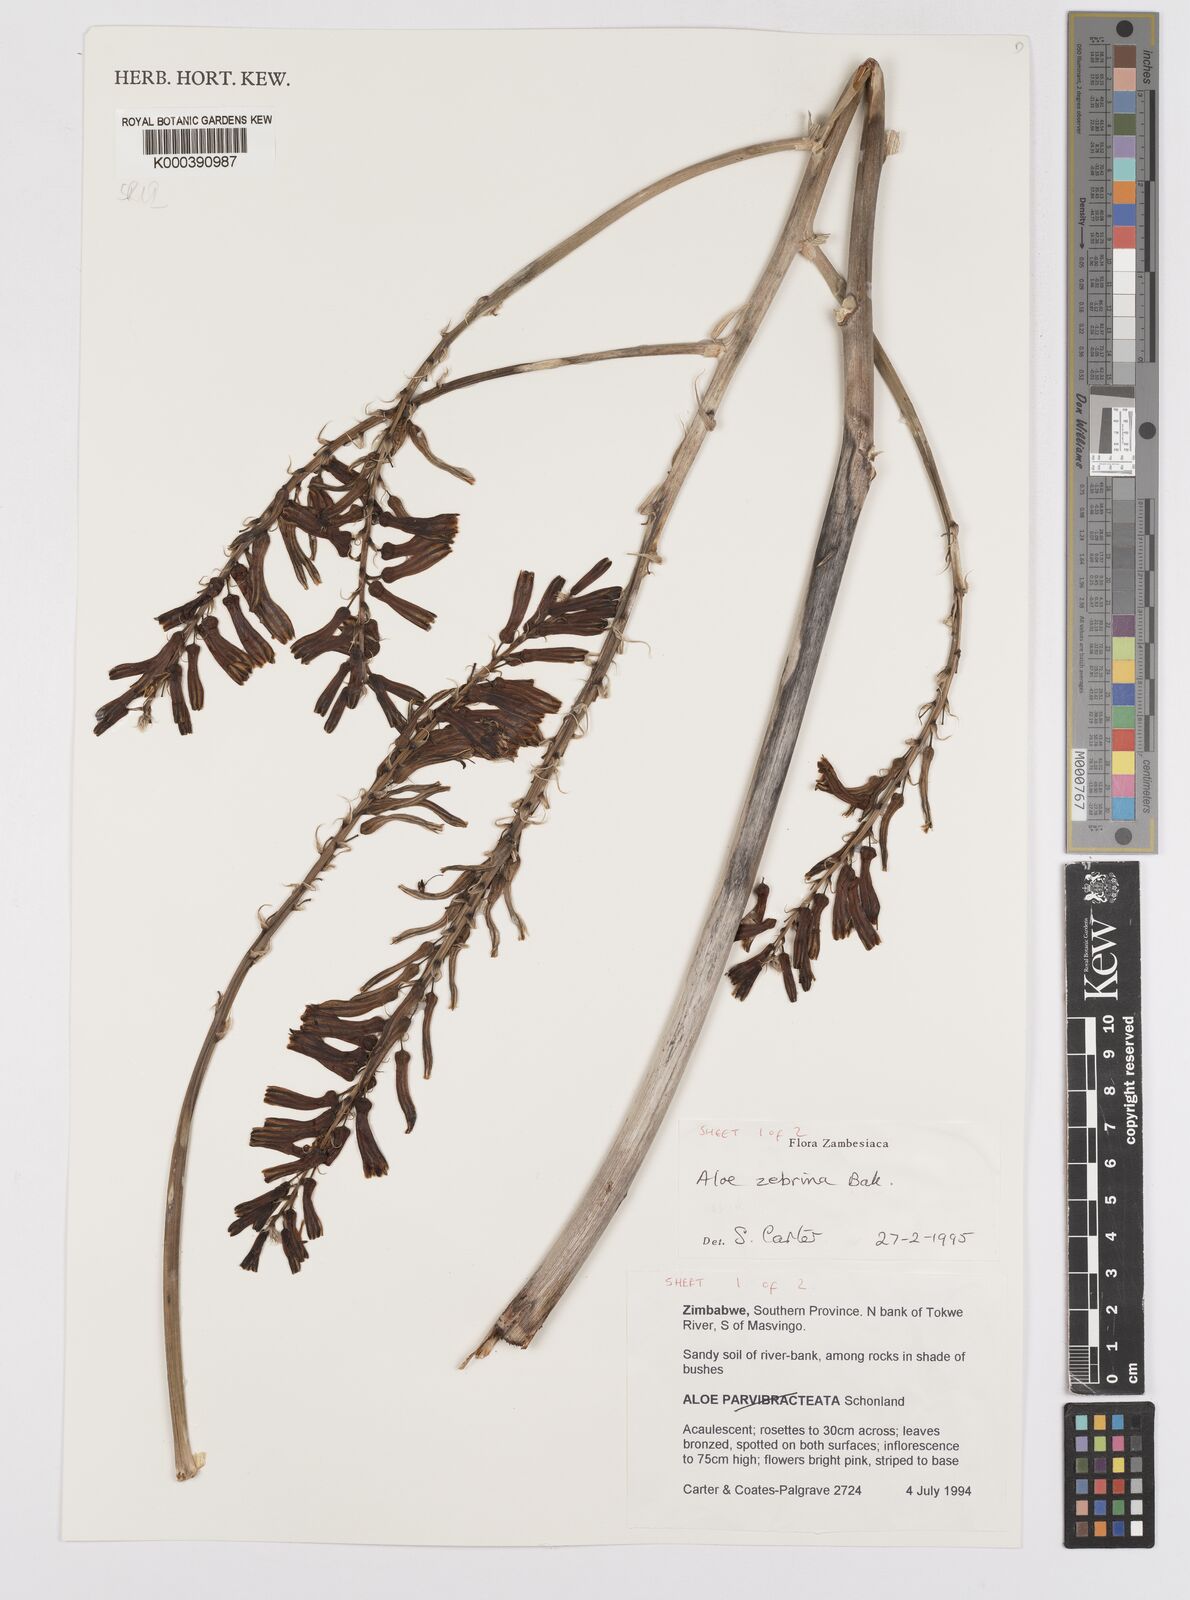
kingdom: Plantae
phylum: Tracheophyta
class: Liliopsida
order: Asparagales
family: Asphodelaceae
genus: Aloe
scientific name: Aloe zebrina
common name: Zebra-leaf aloe
